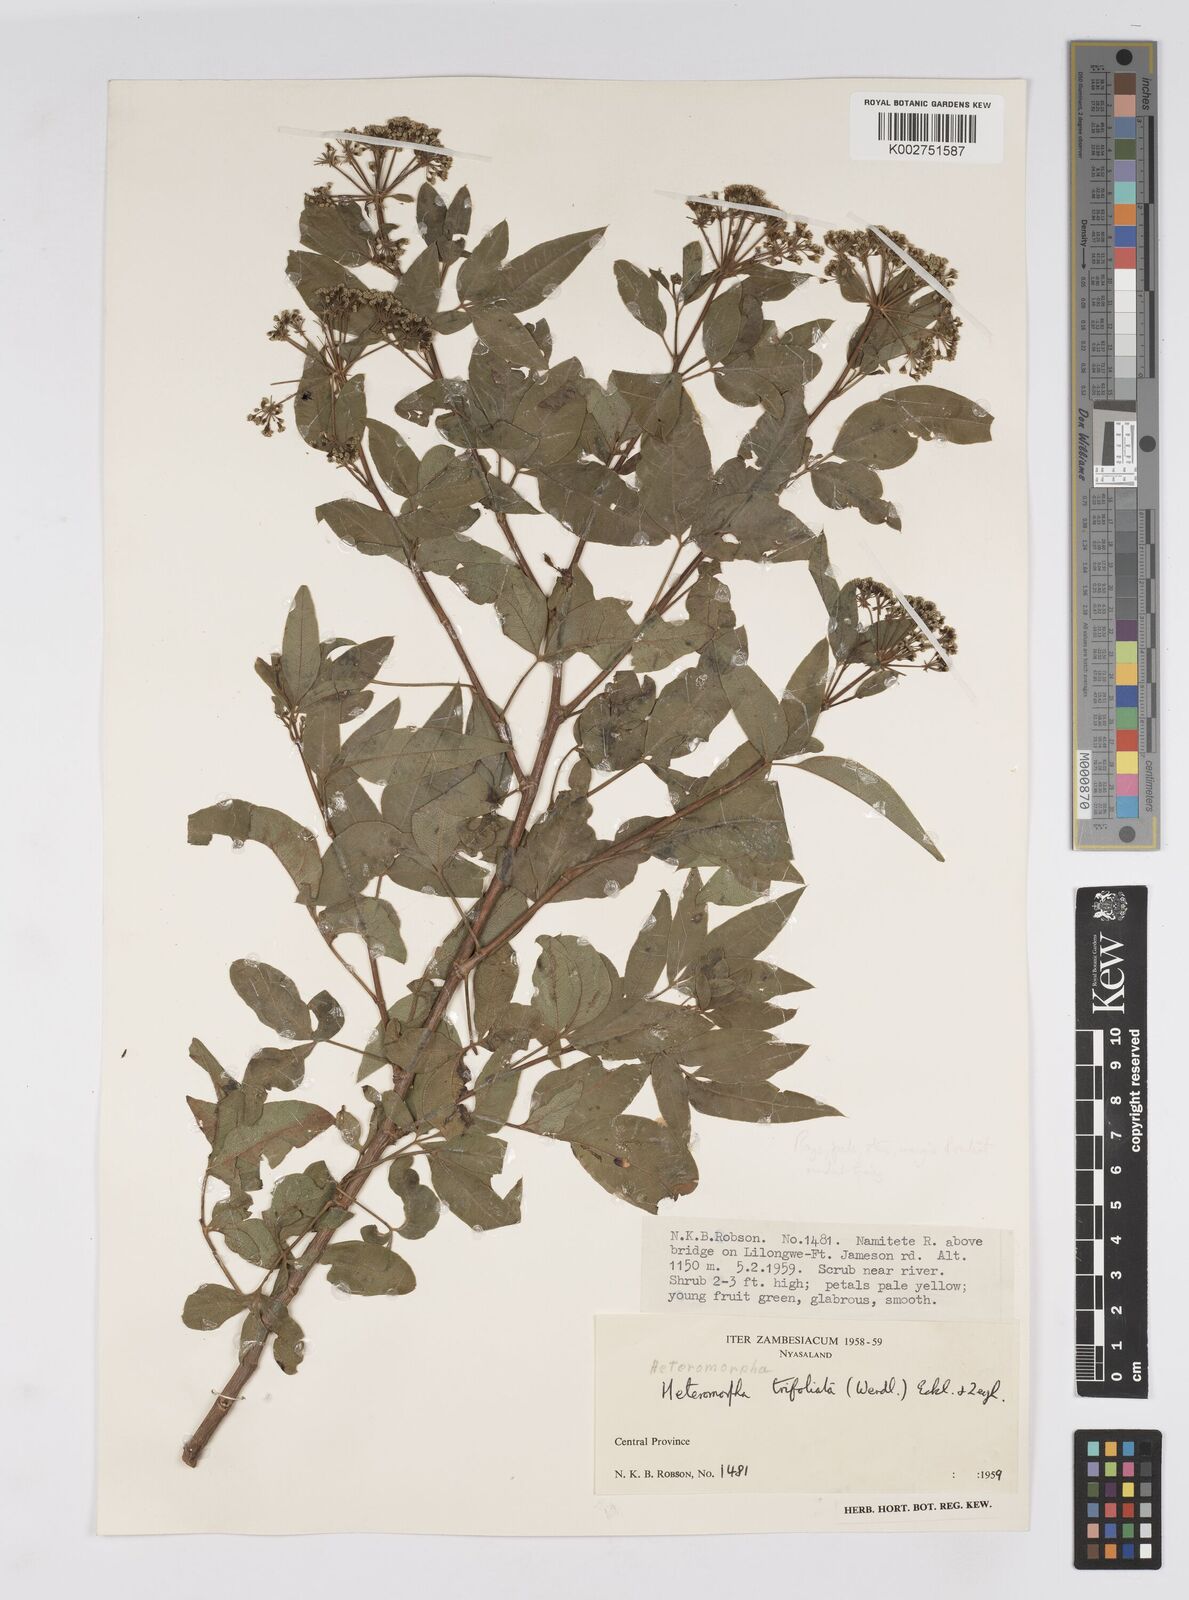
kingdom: Plantae
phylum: Tracheophyta
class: Magnoliopsida
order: Apiales
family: Apiaceae
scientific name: Apiaceae
